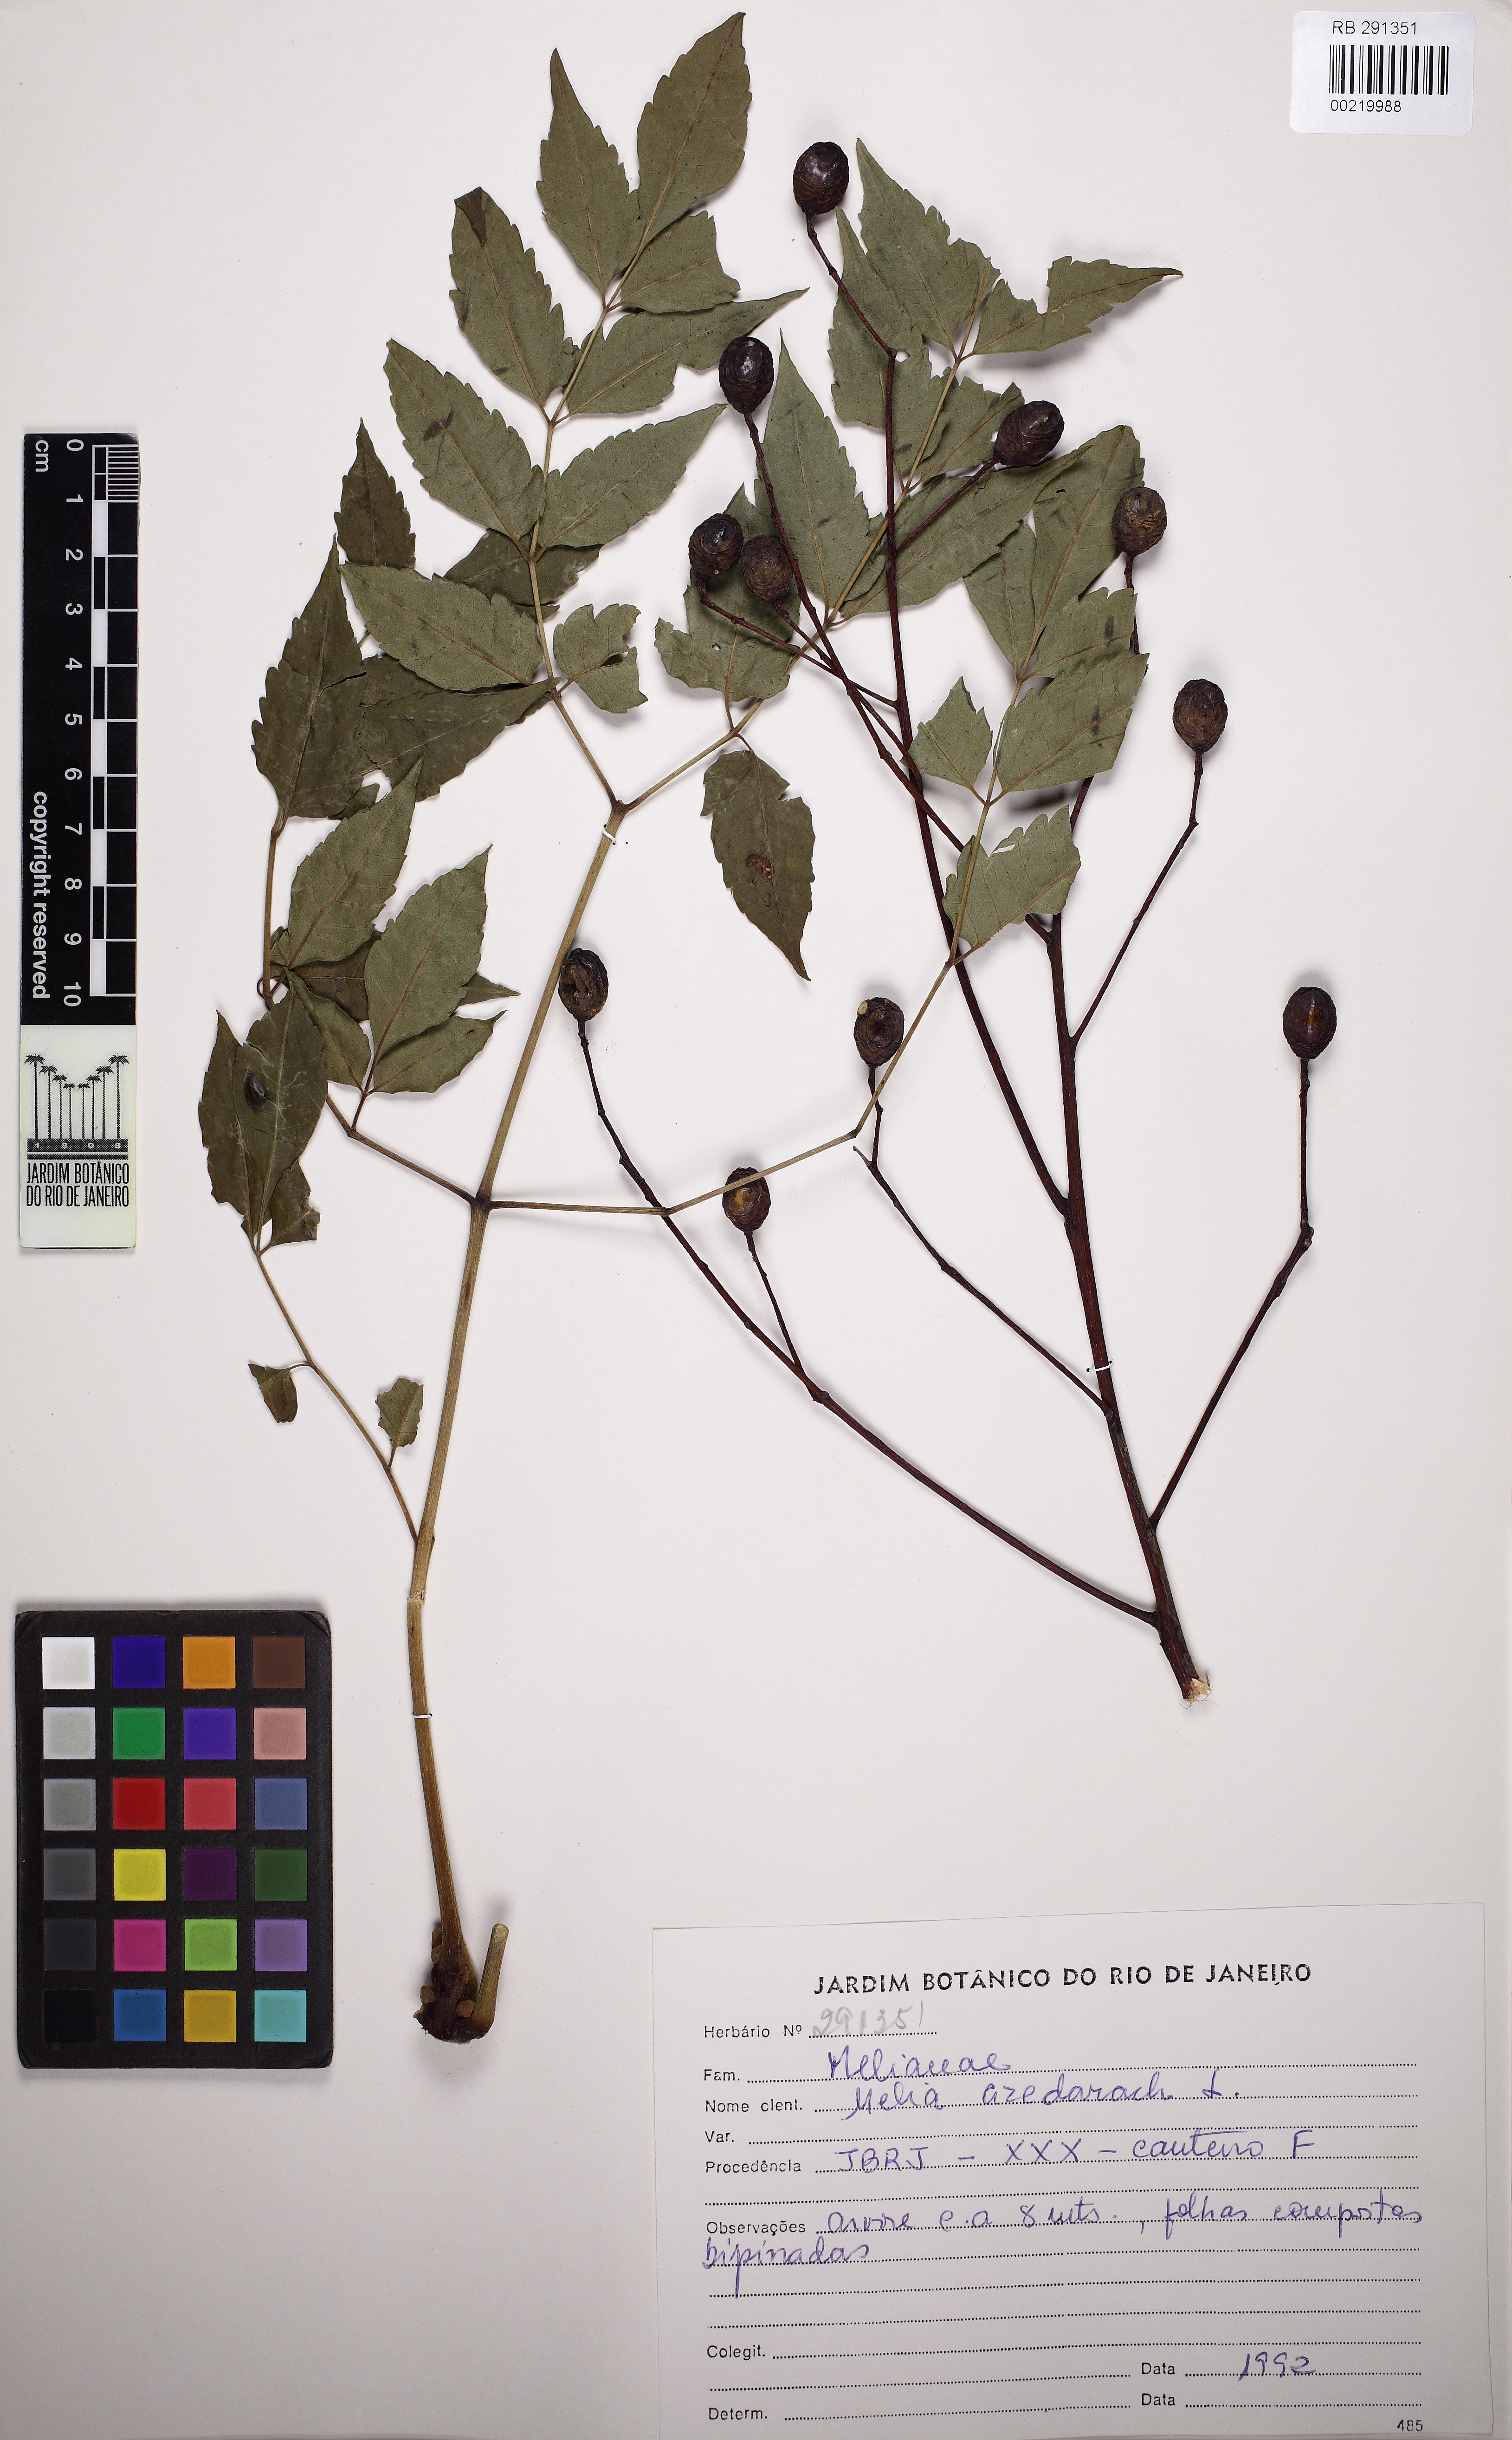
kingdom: Plantae
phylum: Tracheophyta
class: Magnoliopsida
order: Sapindales
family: Meliaceae
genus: Melia
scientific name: Melia azedarach
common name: Chinaberrytree
